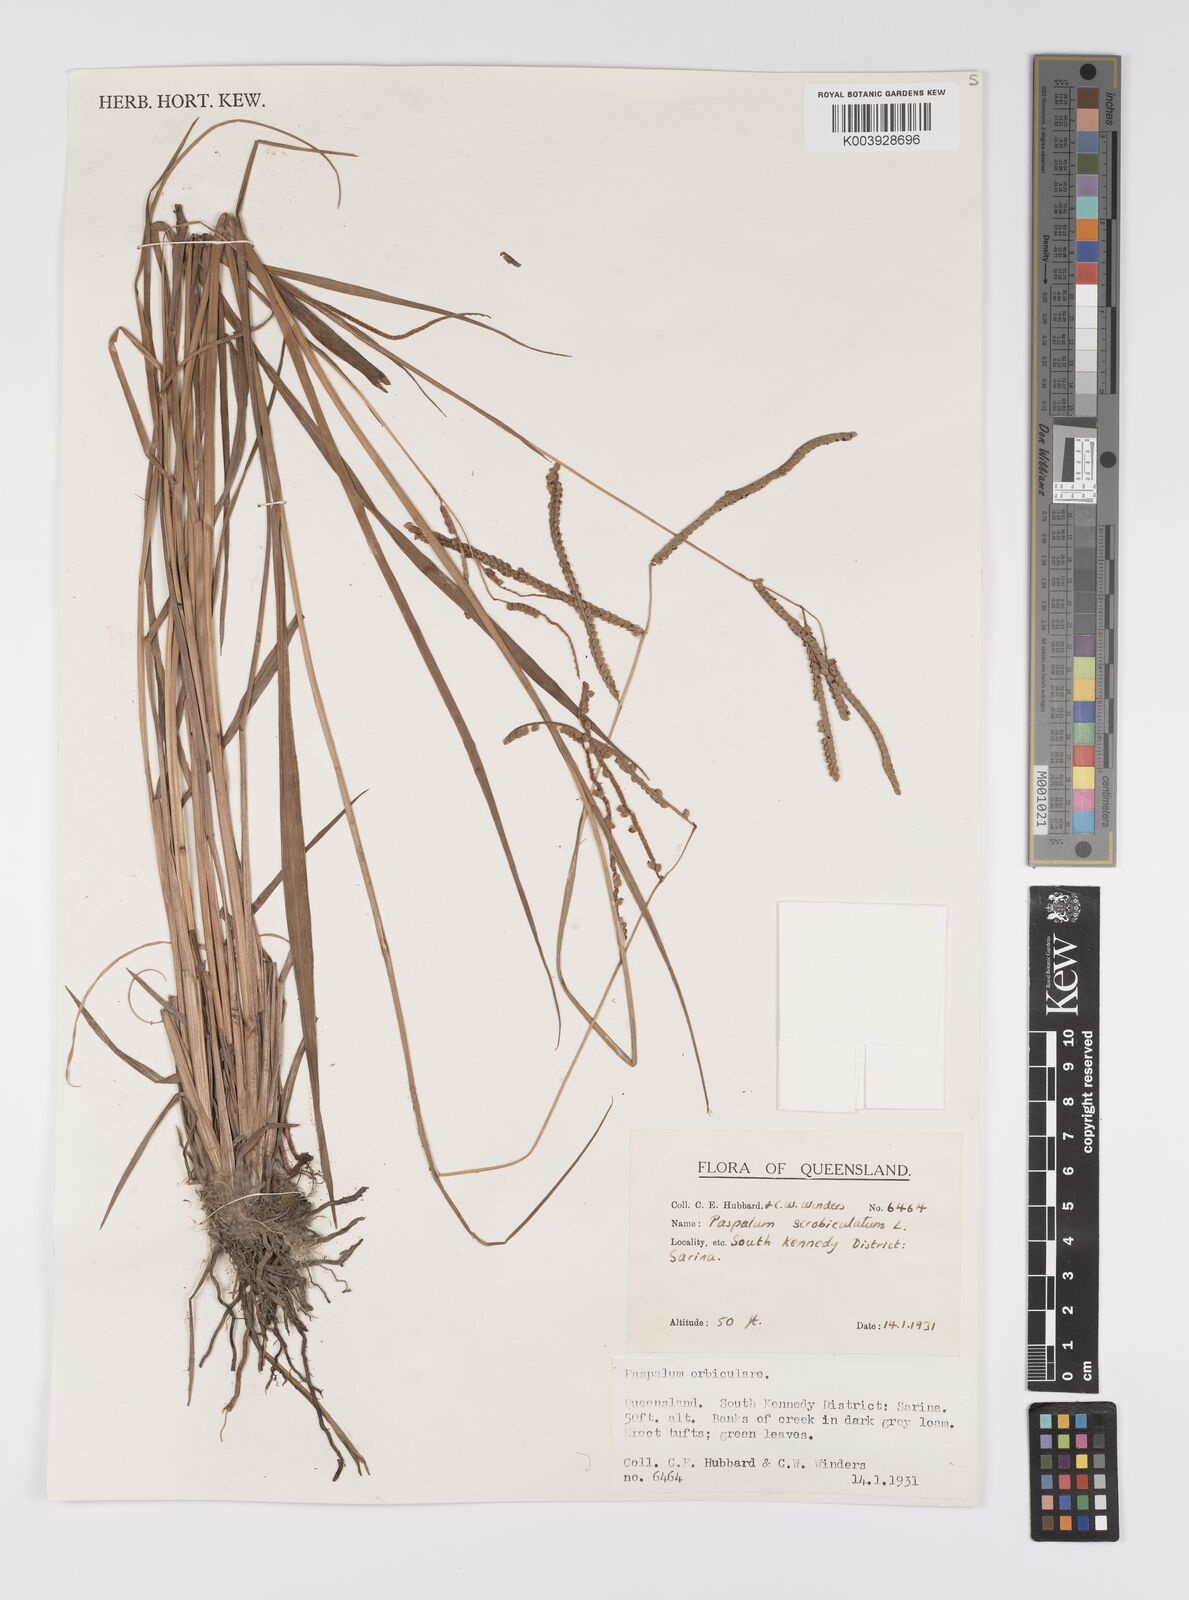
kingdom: Plantae
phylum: Tracheophyta
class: Liliopsida
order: Poales
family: Poaceae
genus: Paspalum
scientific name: Paspalum scrobiculatum
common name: Kodo millet
